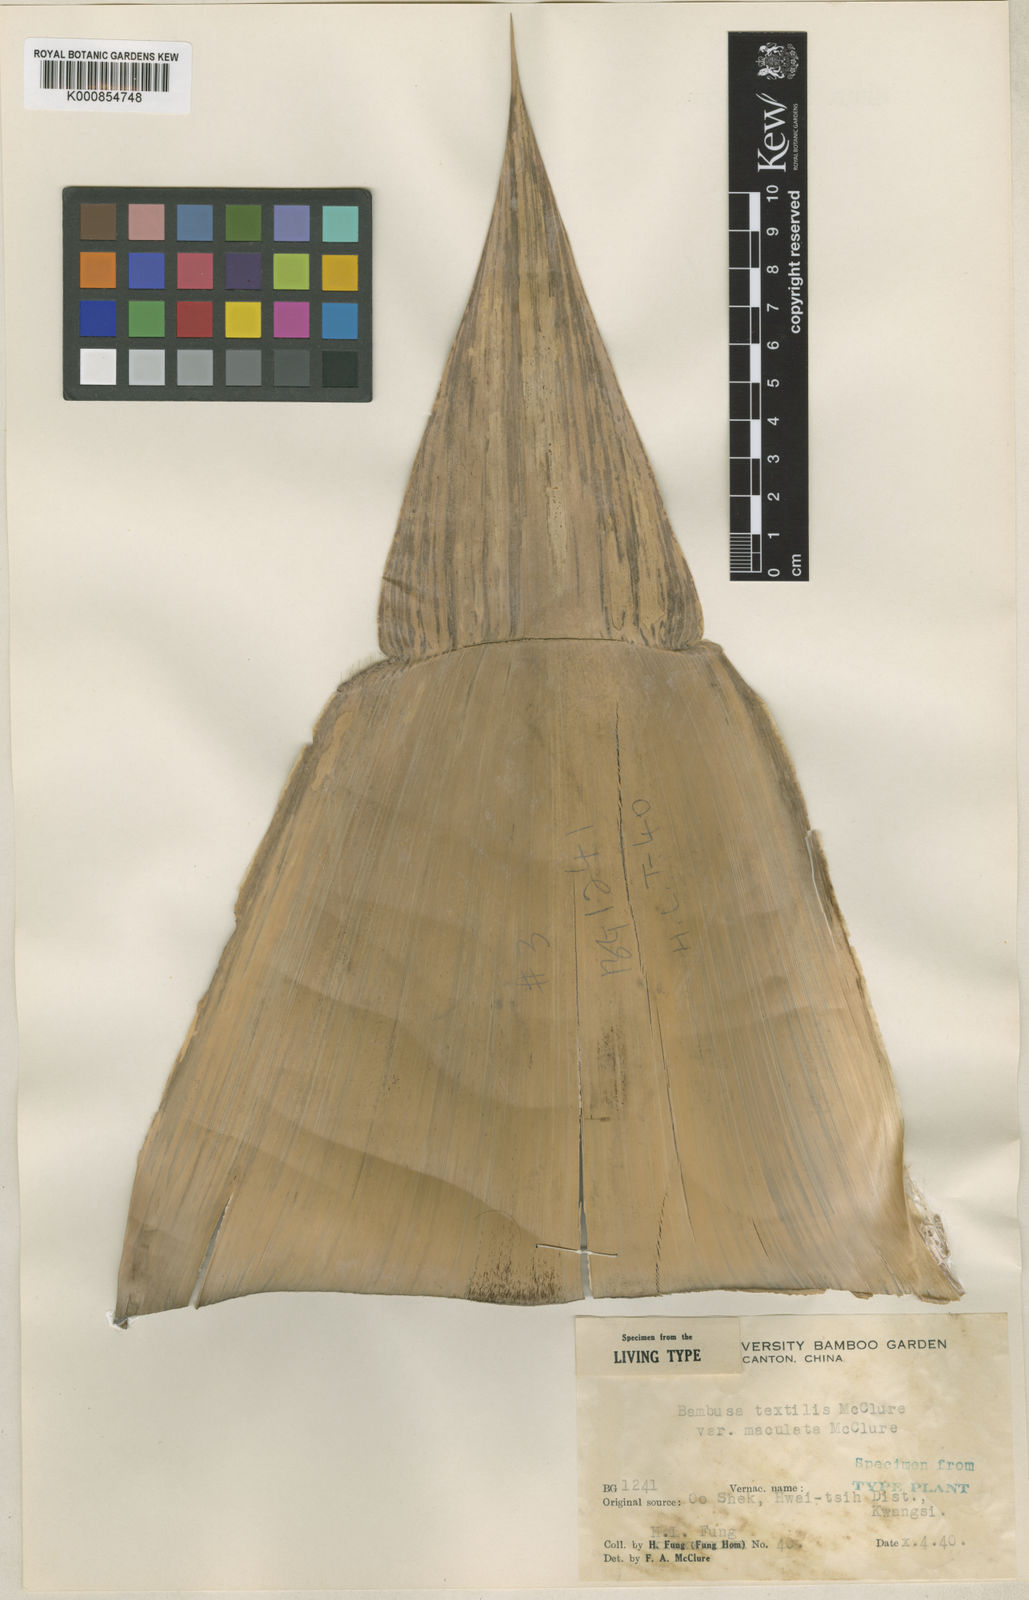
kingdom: Plantae
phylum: Tracheophyta
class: Liliopsida
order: Poales
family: Poaceae
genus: Bambusa
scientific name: Bambusa textilis
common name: Weaver's bamboo
